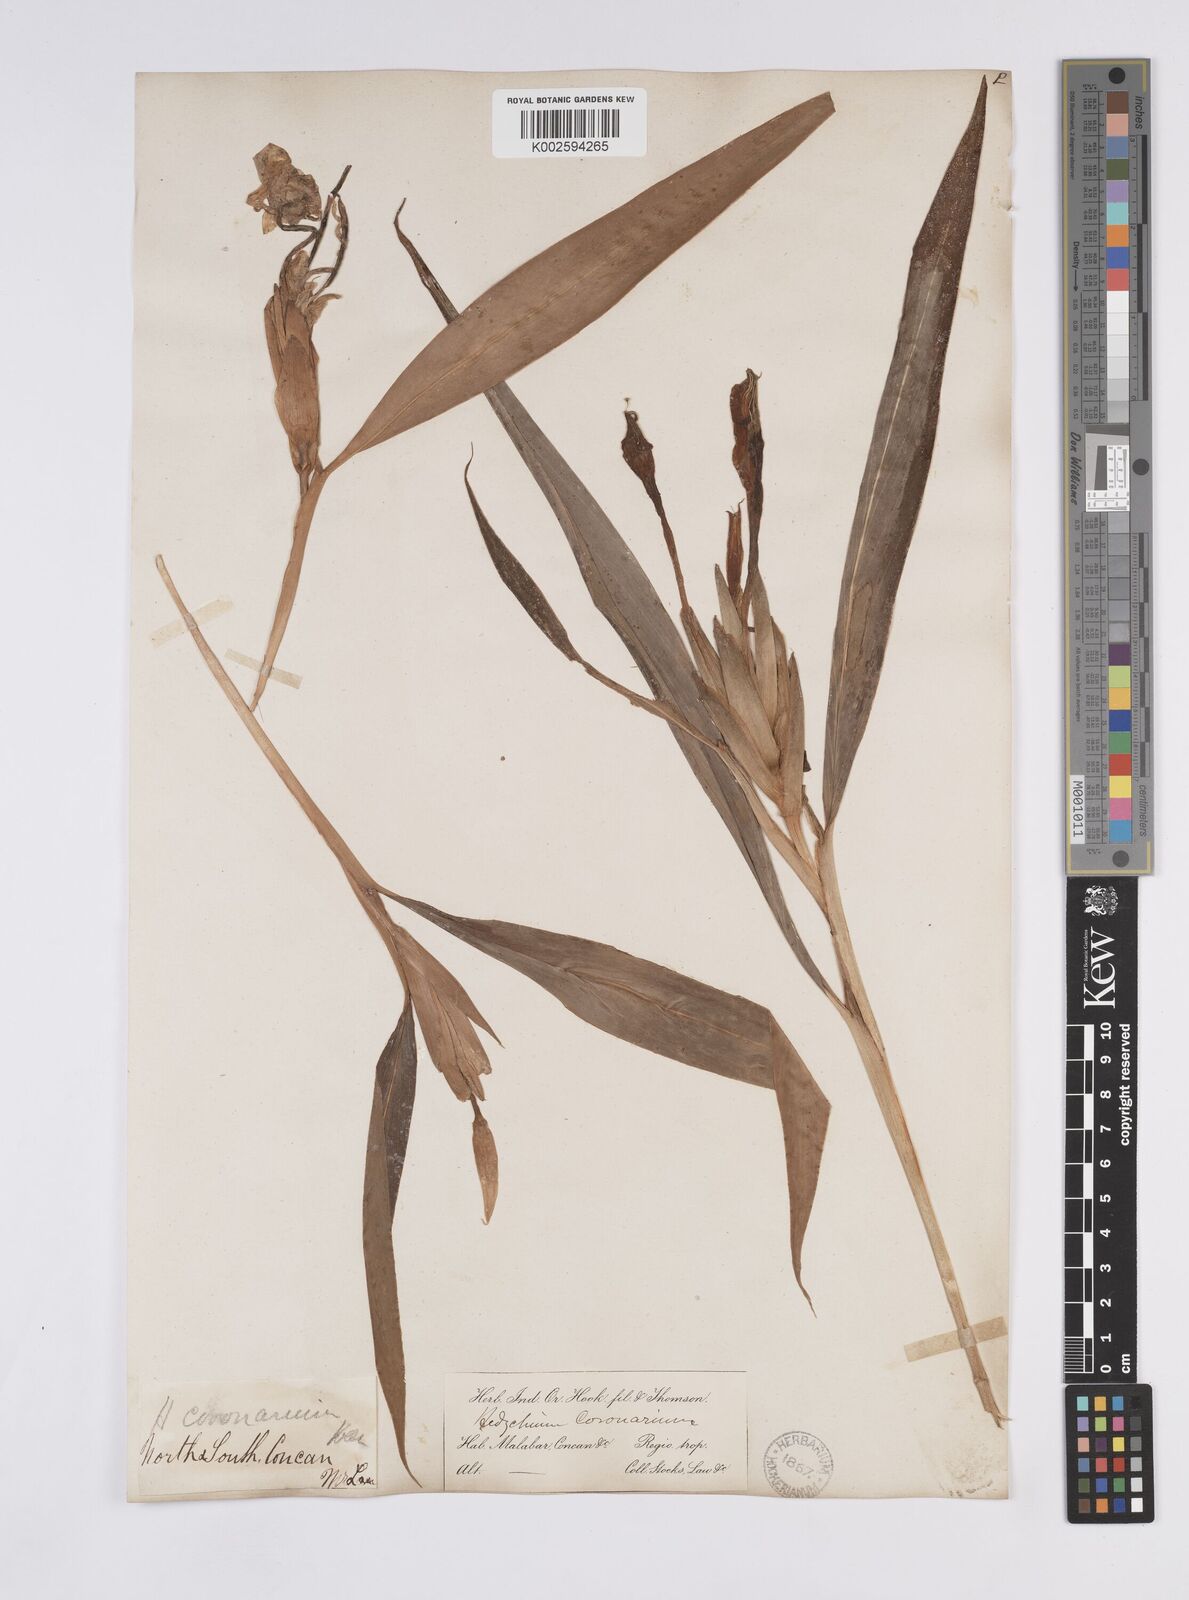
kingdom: Plantae
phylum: Tracheophyta
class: Liliopsida
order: Zingiberales
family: Zingiberaceae
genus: Hedychium
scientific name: Hedychium coronarium
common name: White garland-lily
